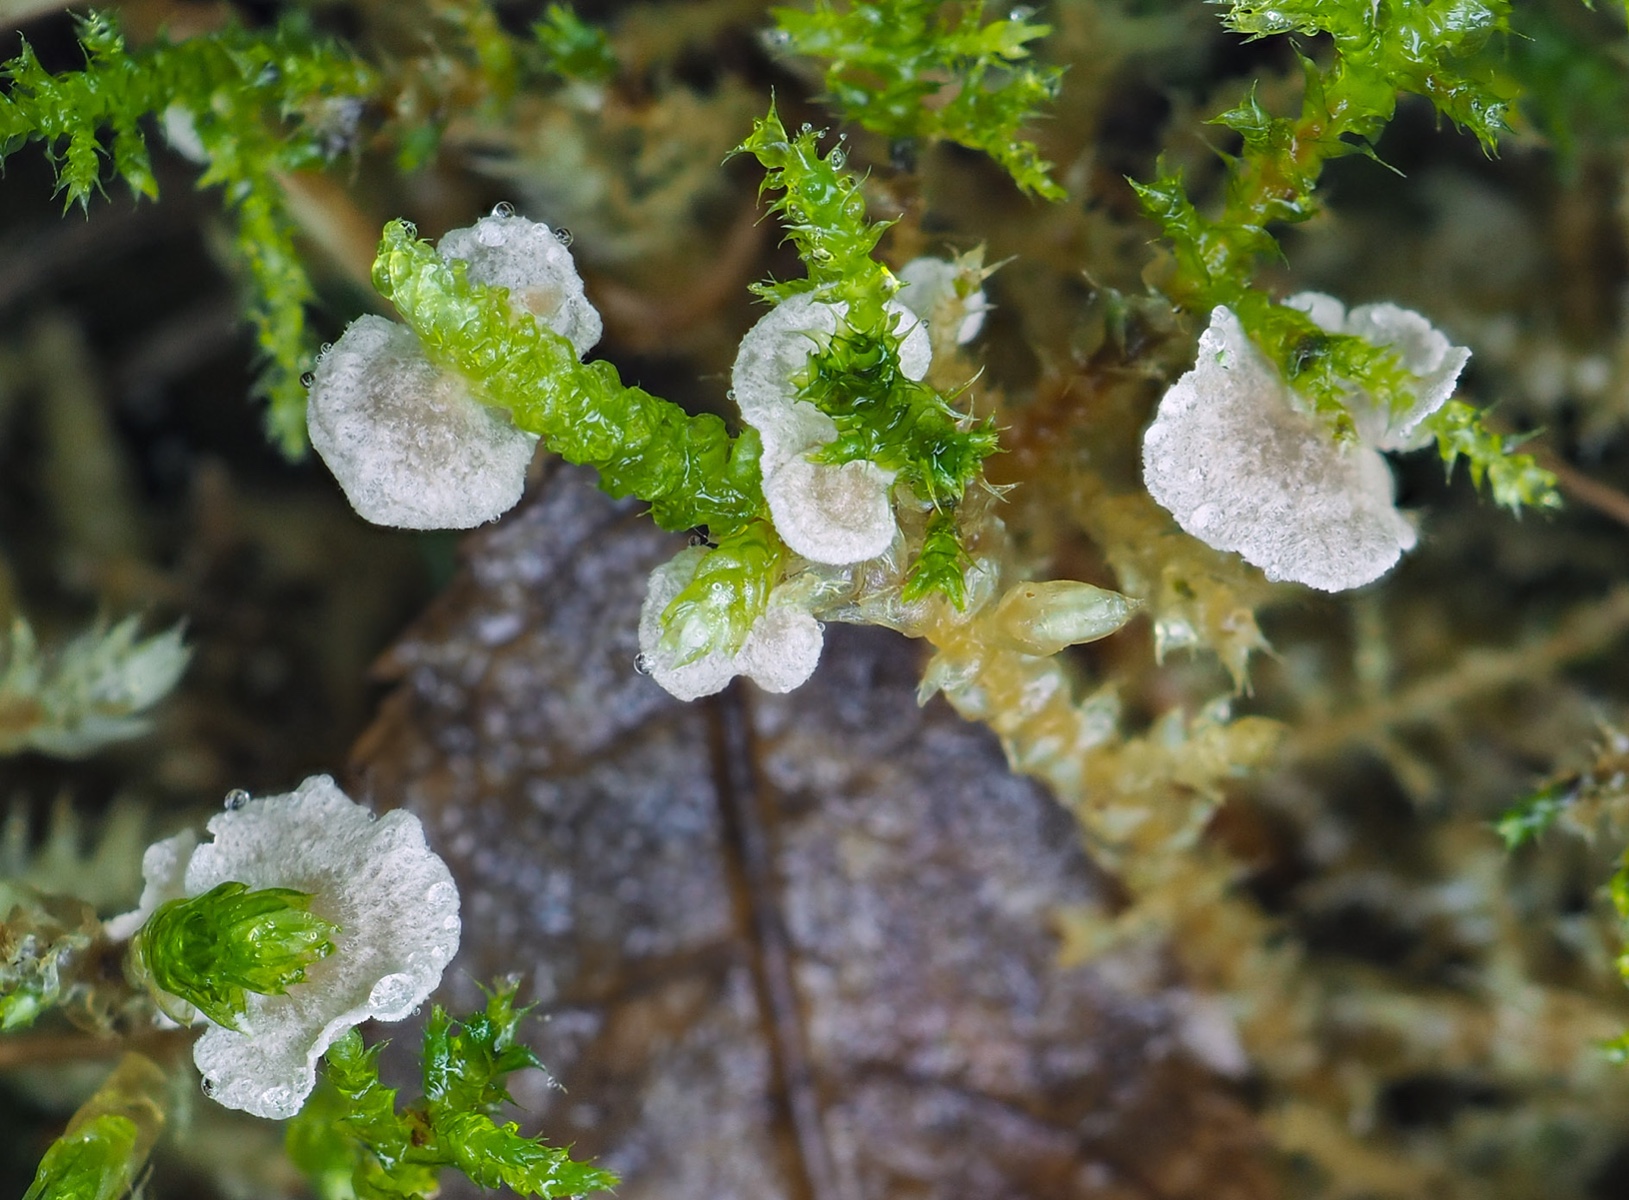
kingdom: Fungi
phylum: Basidiomycota
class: Agaricomycetes
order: Agaricales
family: Hygrophoraceae
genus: Arrhenia
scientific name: Arrhenia retiruga
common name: lille fontænehat
